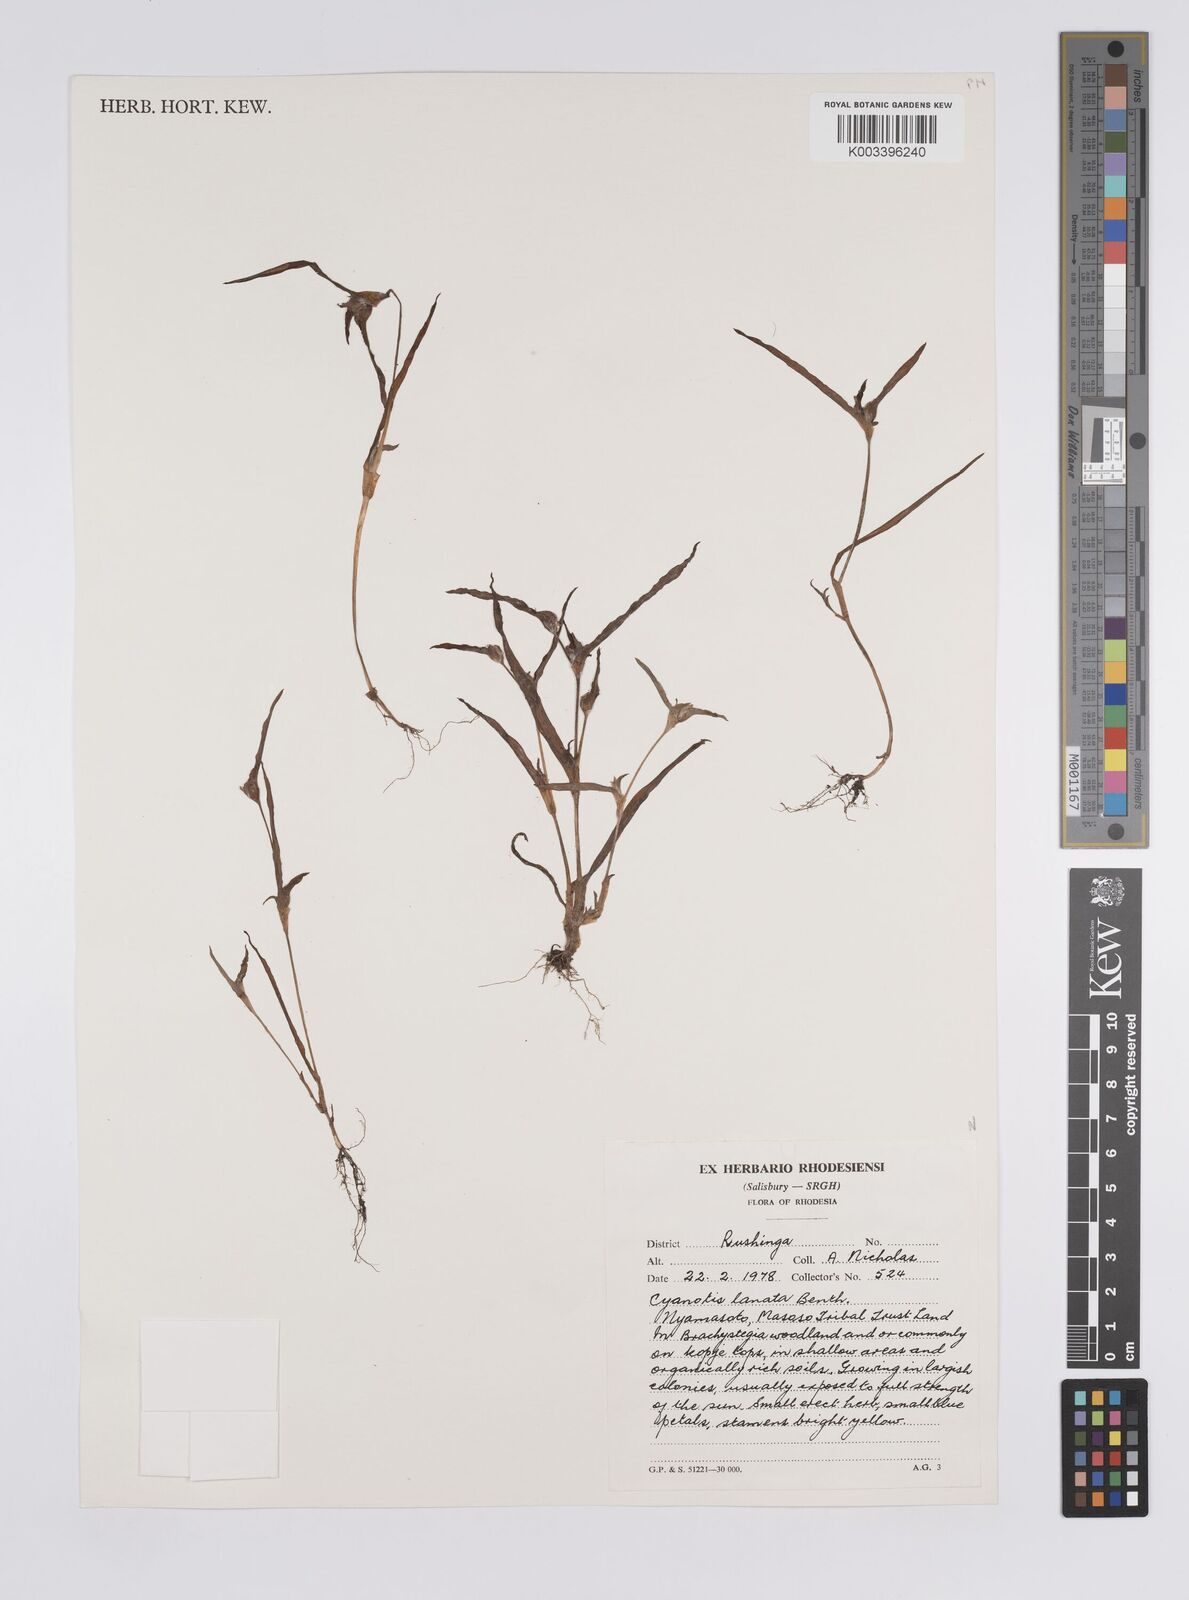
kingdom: Plantae
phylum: Tracheophyta
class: Liliopsida
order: Commelinales
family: Commelinaceae
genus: Cyanotis
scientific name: Cyanotis lanata
